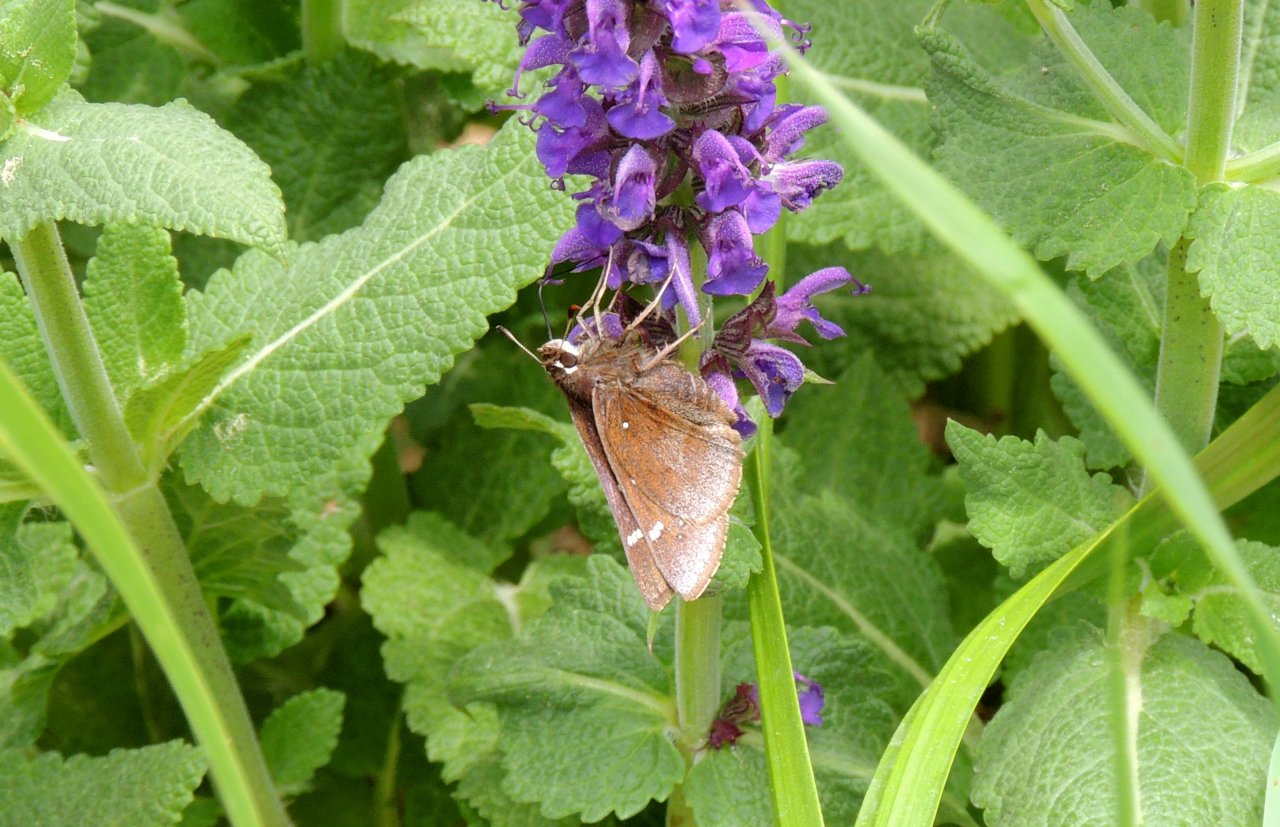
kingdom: Animalia
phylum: Arthropoda
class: Insecta
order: Lepidoptera
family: Hesperiidae
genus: Atrytonopsis
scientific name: Atrytonopsis hianna
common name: Dusted Skipper
